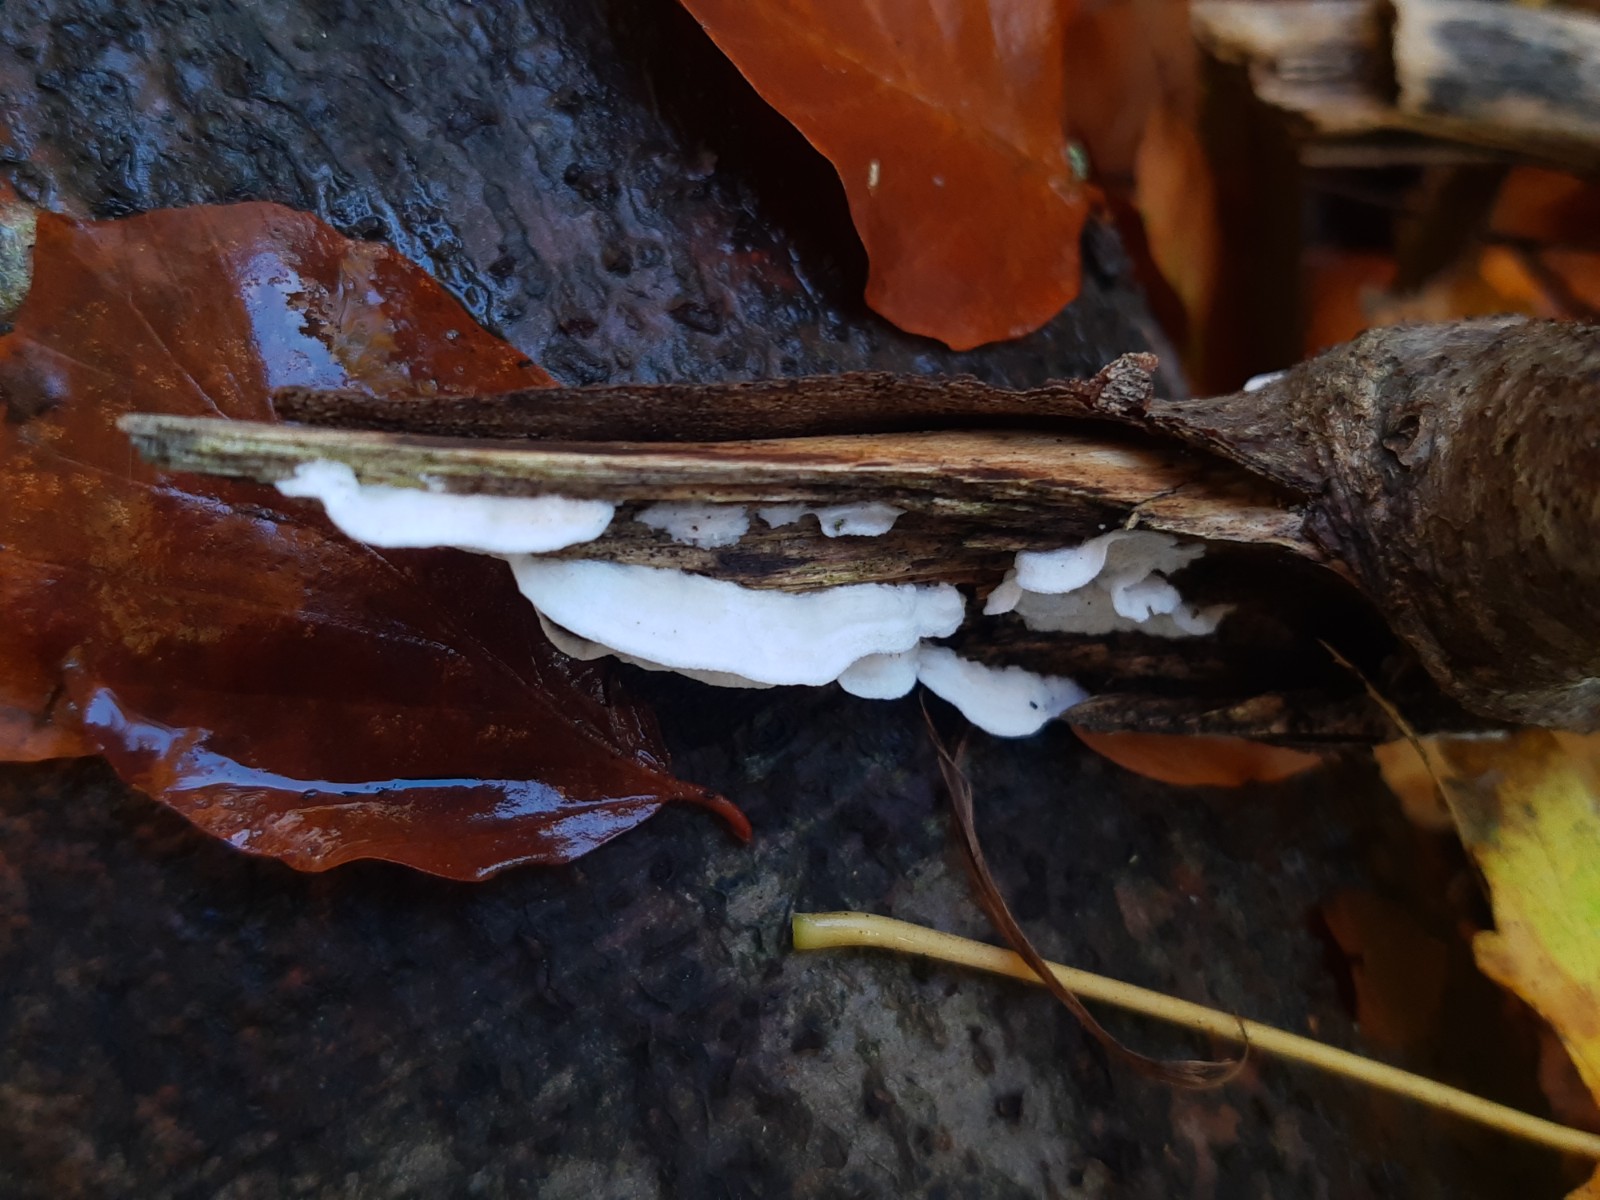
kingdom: Fungi
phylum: Basidiomycota
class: Agaricomycetes
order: Polyporales
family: Irpicaceae
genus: Byssomerulius
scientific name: Byssomerulius corium
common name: læder-åresvamp
